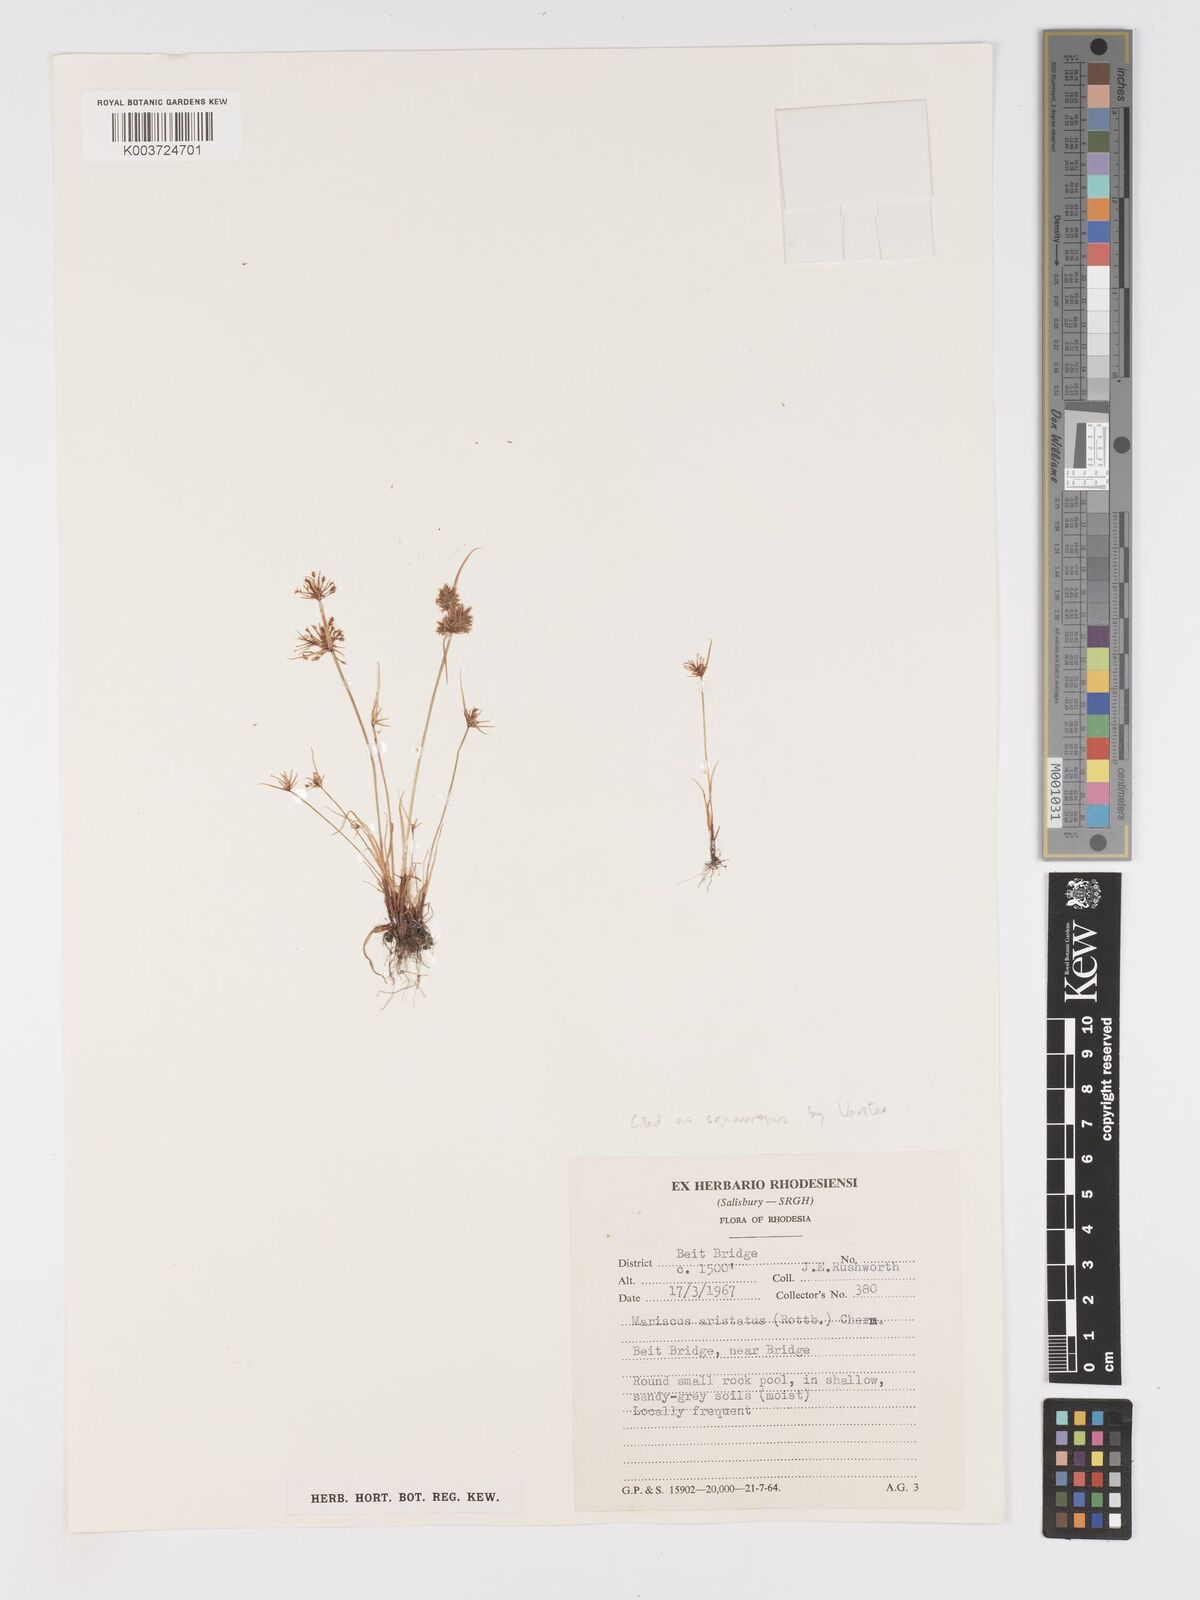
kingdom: Plantae
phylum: Tracheophyta
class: Liliopsida
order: Poales
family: Cyperaceae
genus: Cyperus
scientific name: Cyperus squarrosus
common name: Awned cyperus
